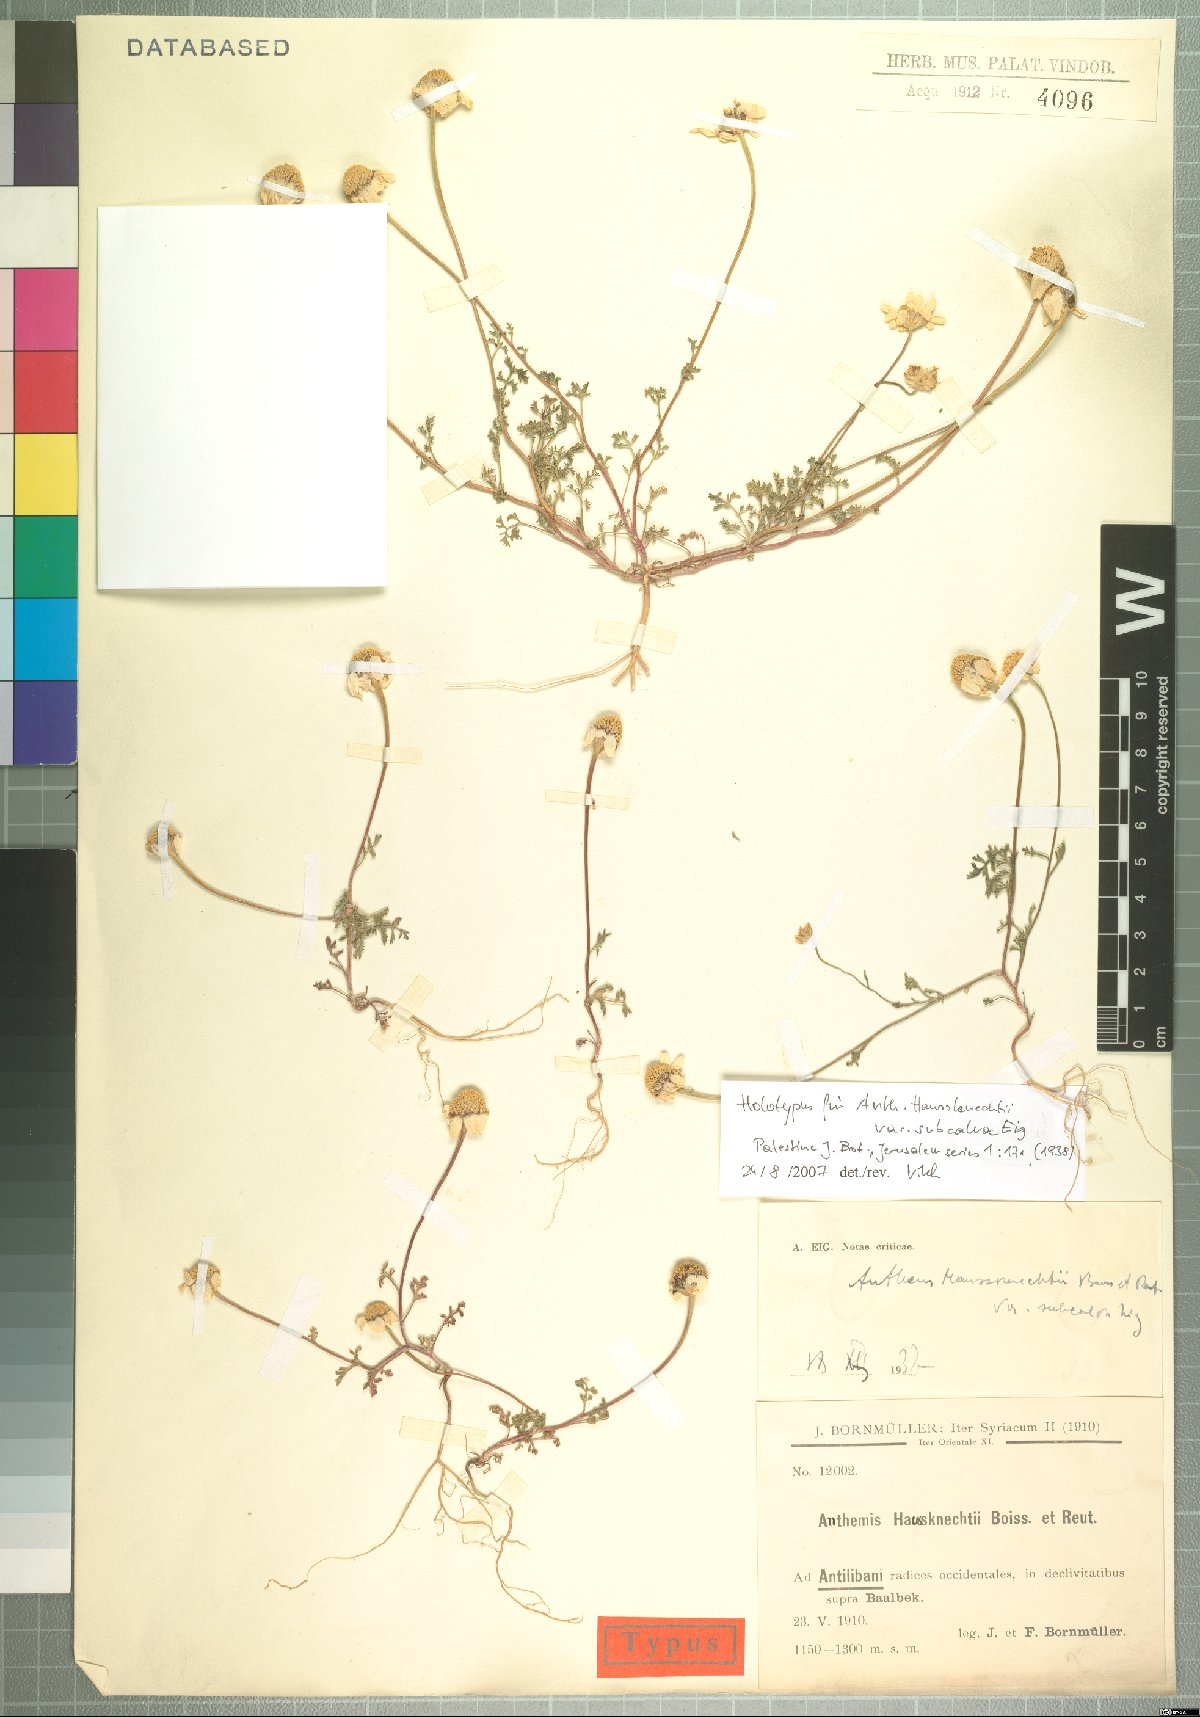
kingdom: Plantae
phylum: Tracheophyta
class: Magnoliopsida
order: Asterales
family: Asteraceae
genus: Anthemis
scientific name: Anthemis haussknechtii
